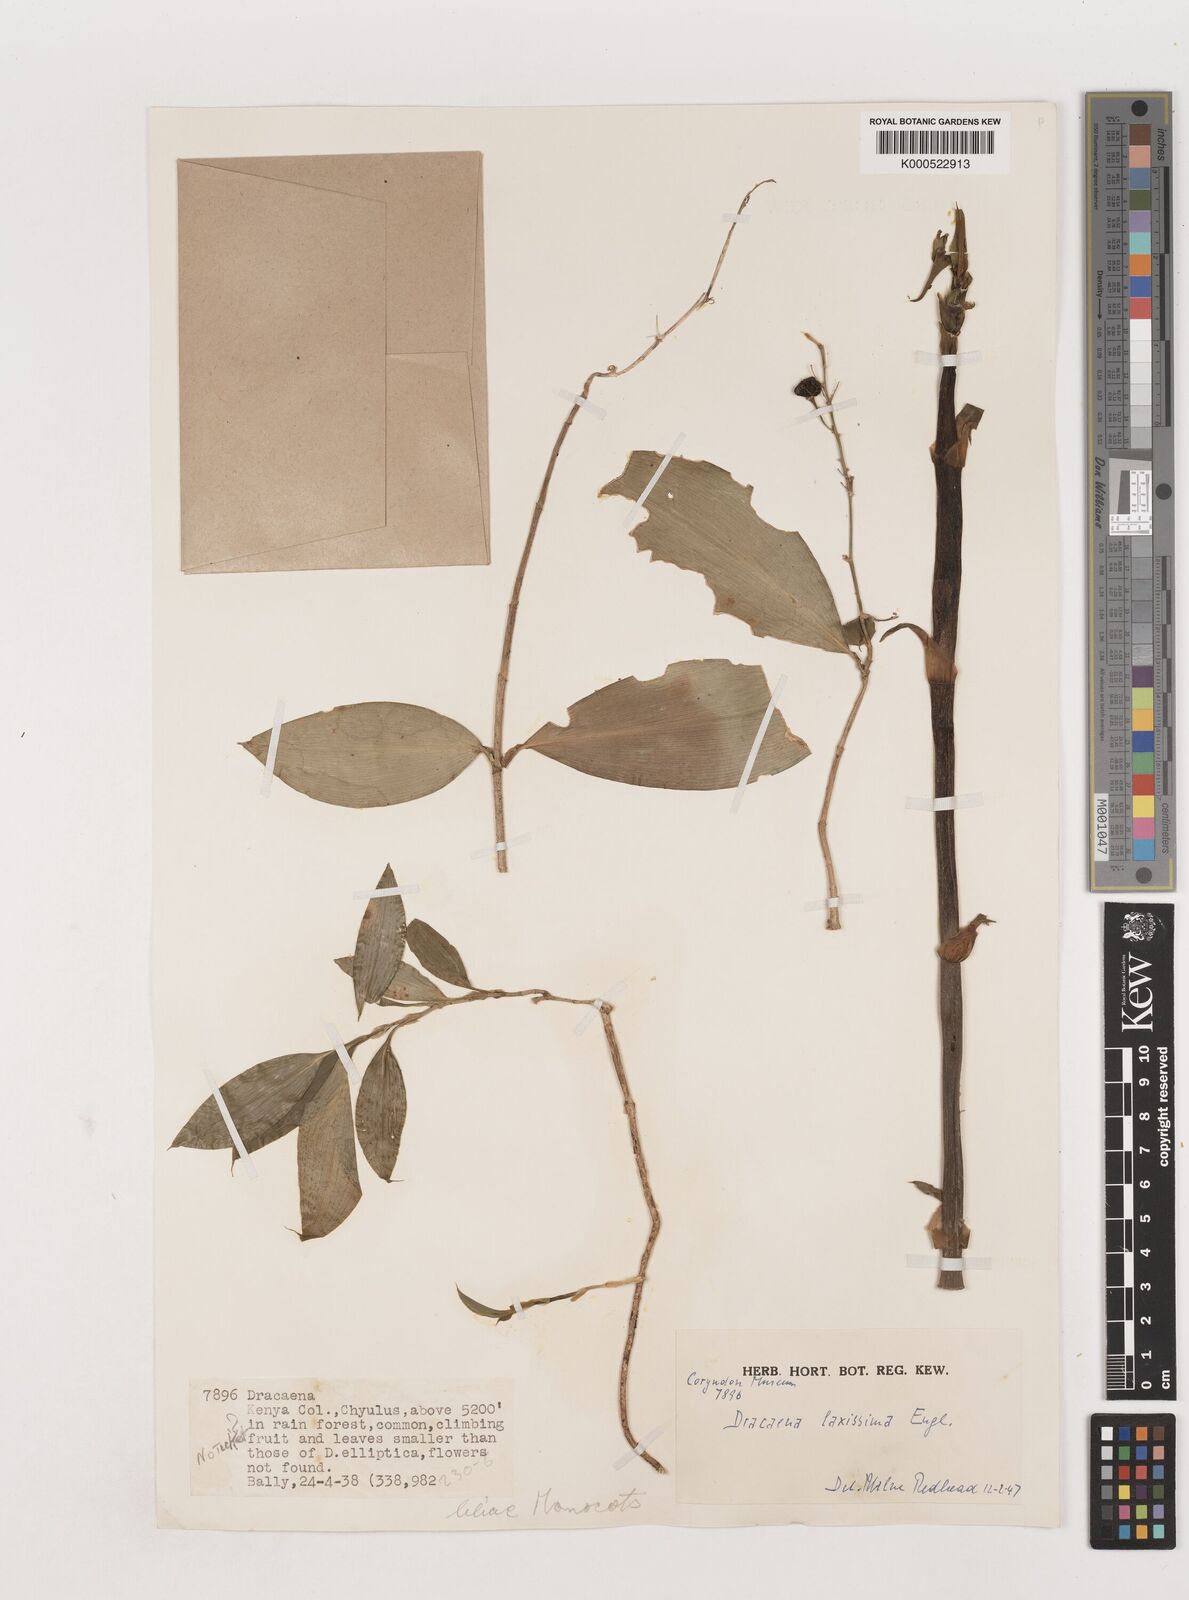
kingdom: Plantae
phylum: Tracheophyta
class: Liliopsida
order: Asparagales
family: Asparagaceae
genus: Dracaena
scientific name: Dracaena laxissima
